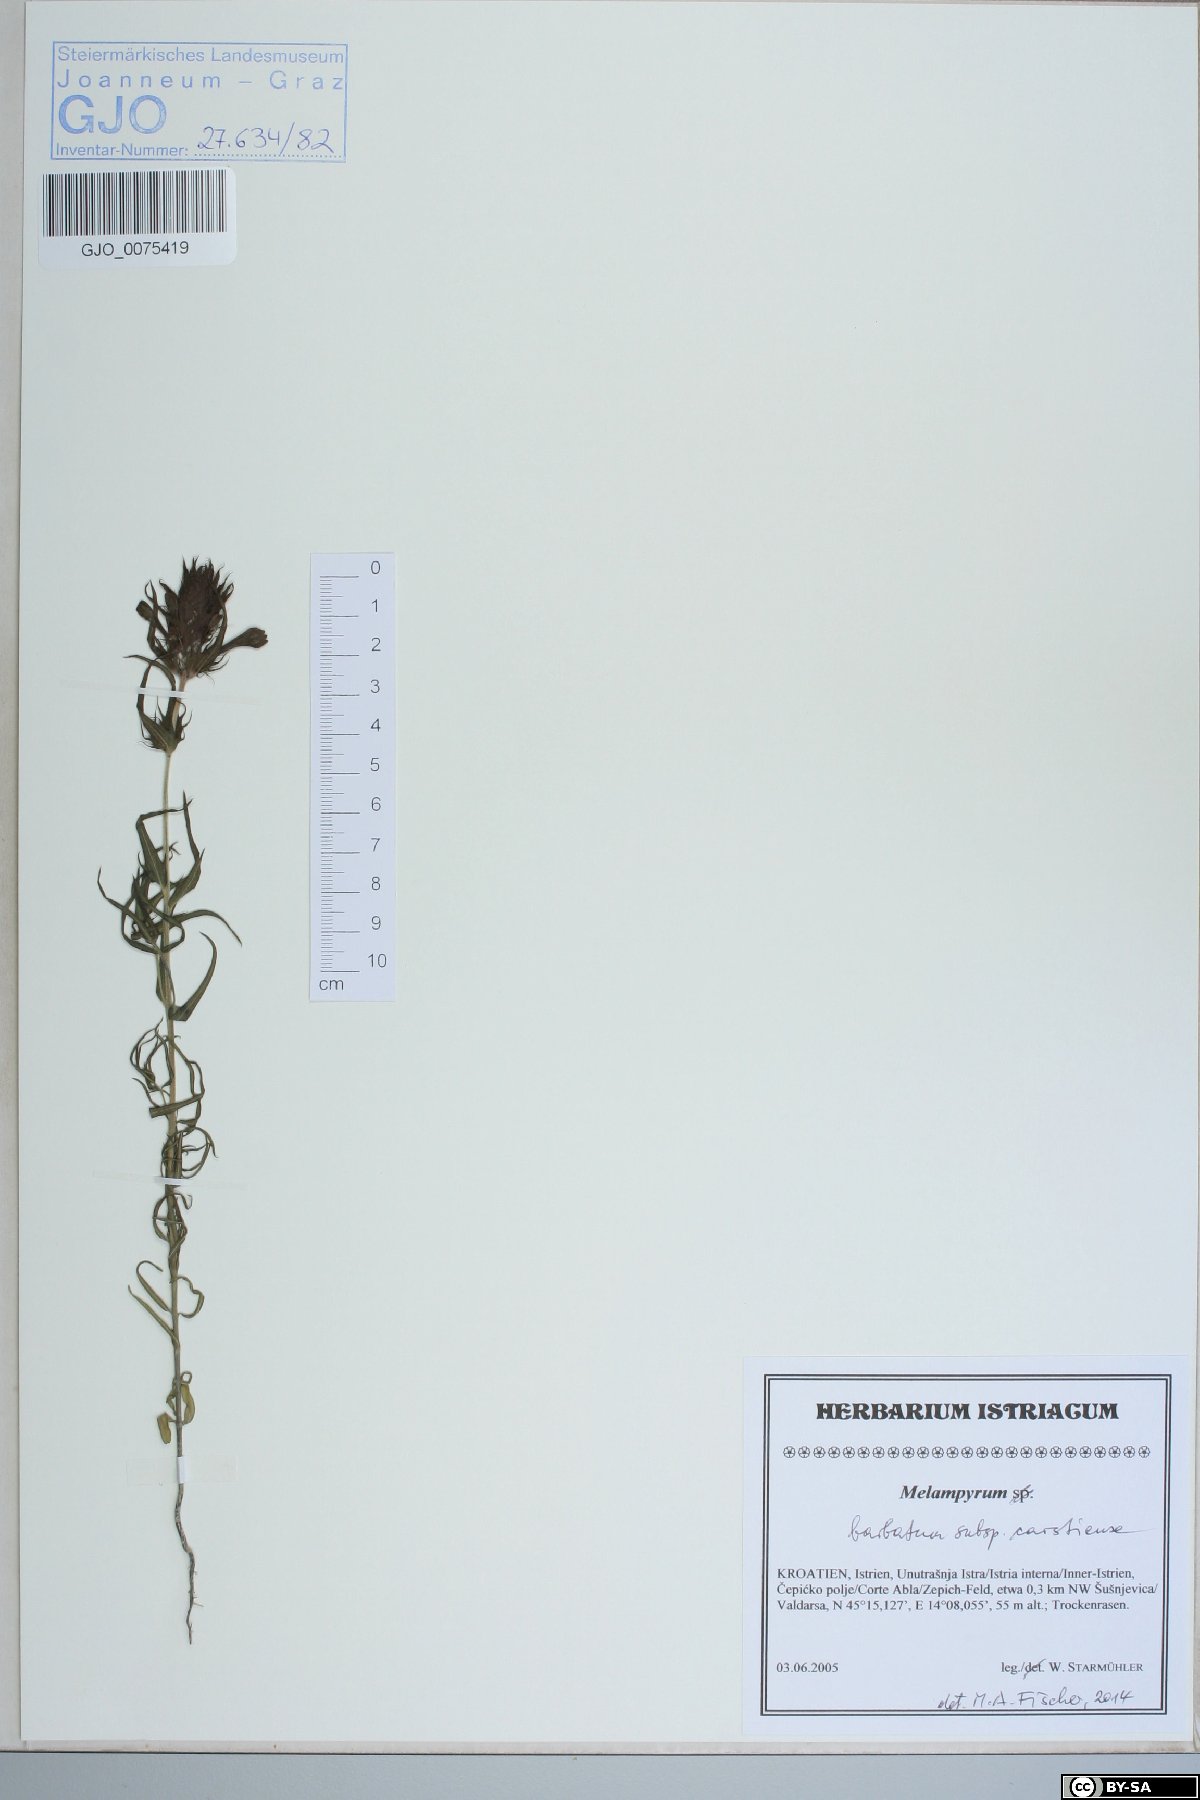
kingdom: Plantae
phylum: Tracheophyta
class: Magnoliopsida
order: Lamiales
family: Orobanchaceae
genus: Melampyrum
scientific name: Melampyrum barbatum
